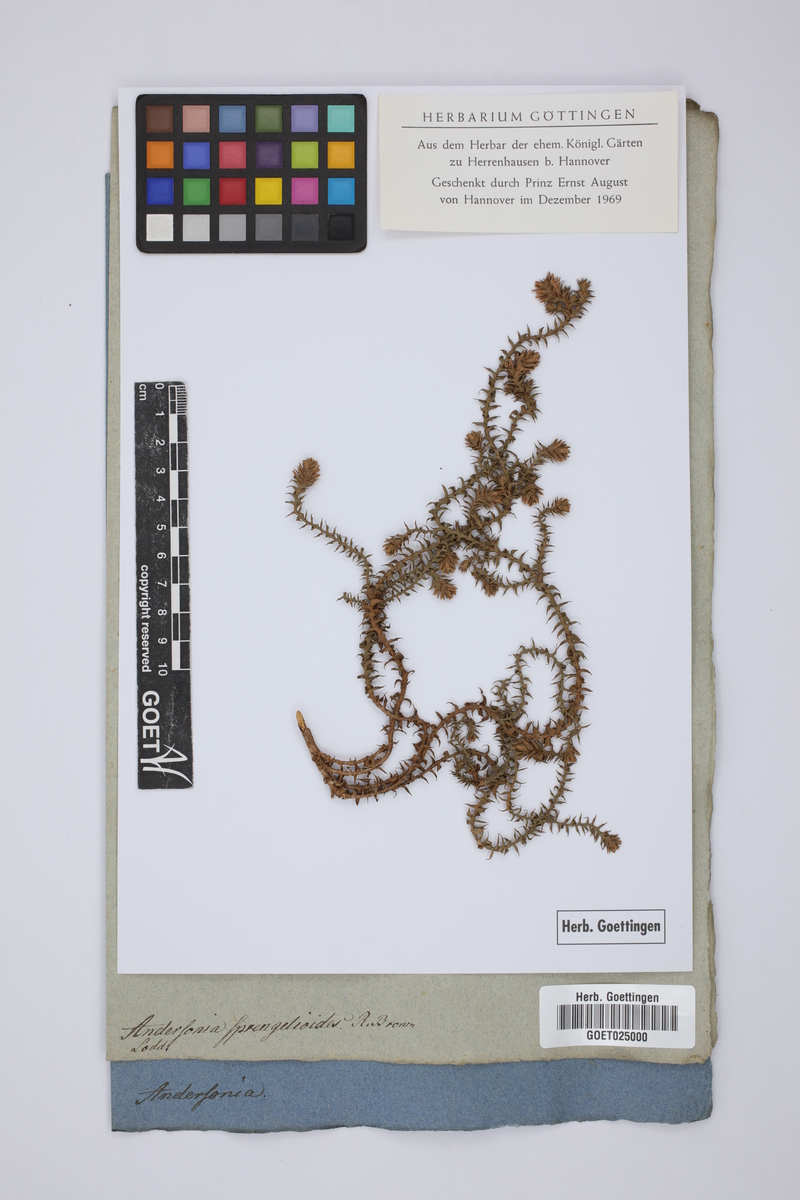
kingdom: Plantae
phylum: Tracheophyta
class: Magnoliopsida
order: Ericales
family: Ericaceae
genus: Andersonia
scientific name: Andersonia sprengelioides
